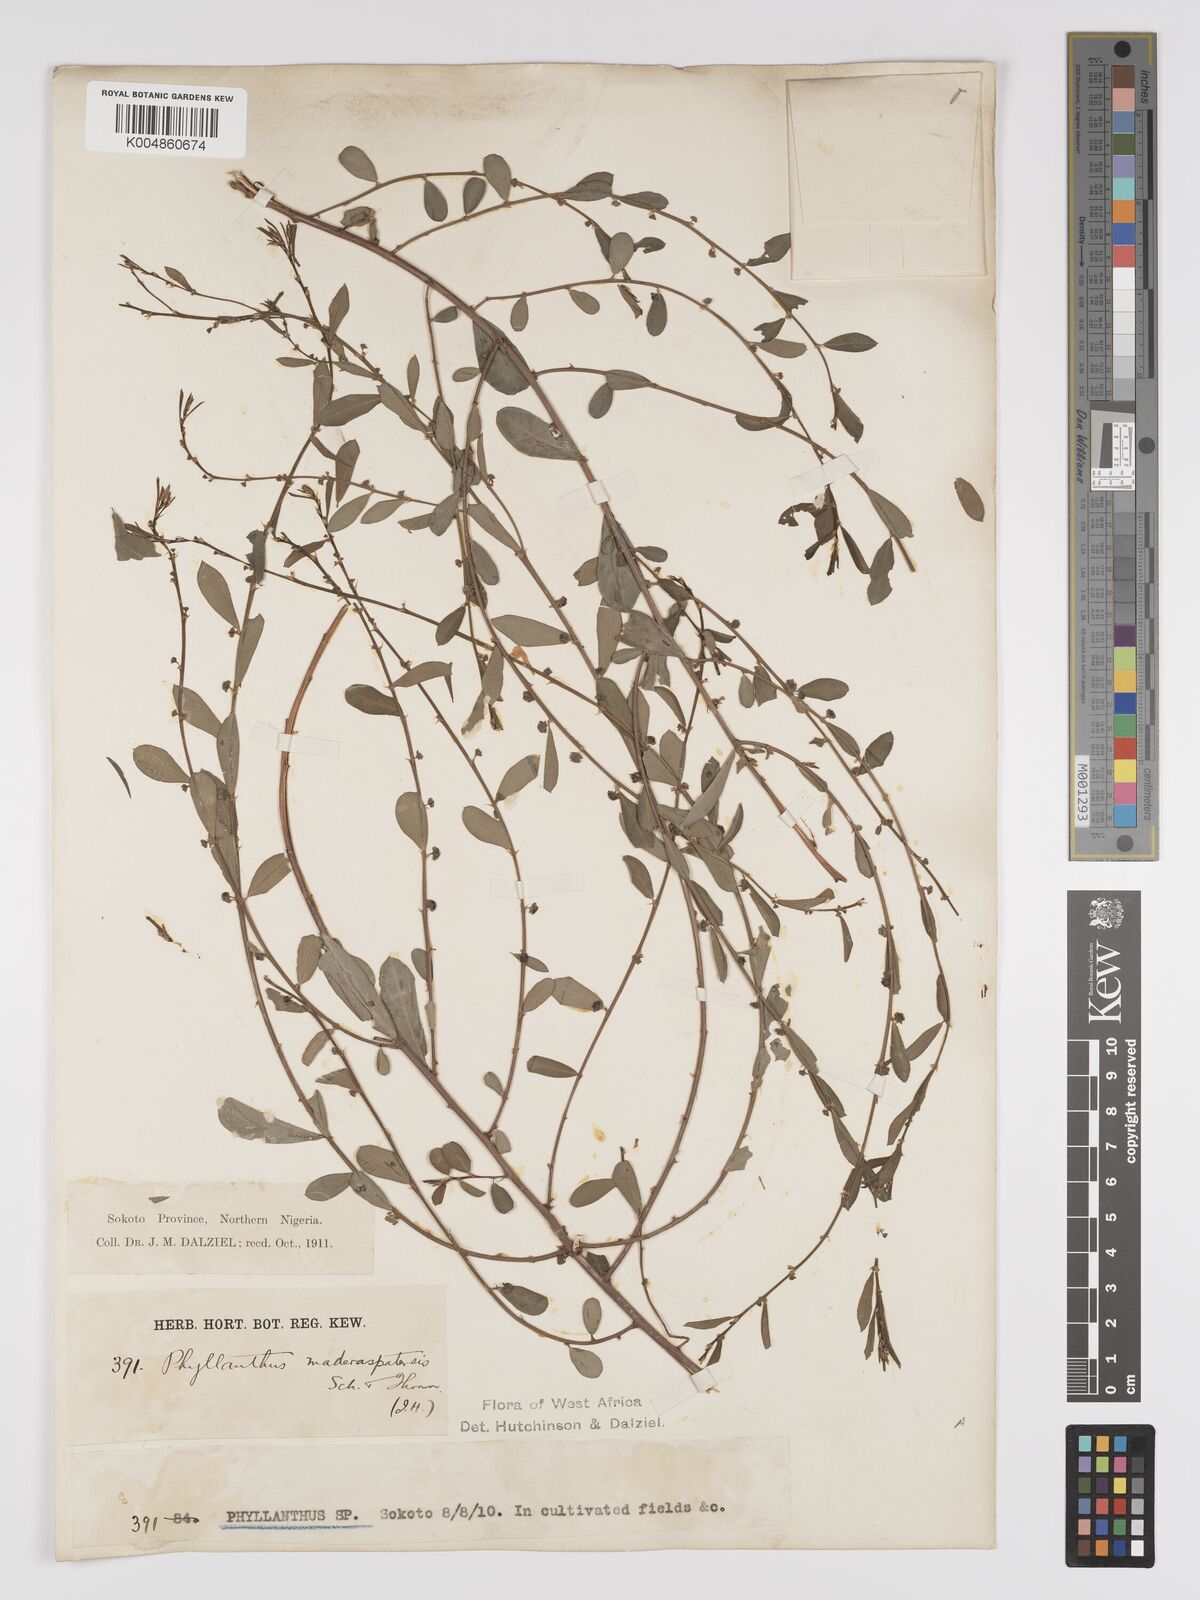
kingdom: Plantae
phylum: Tracheophyta
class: Magnoliopsida
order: Malpighiales
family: Phyllanthaceae
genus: Phyllanthus
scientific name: Phyllanthus
